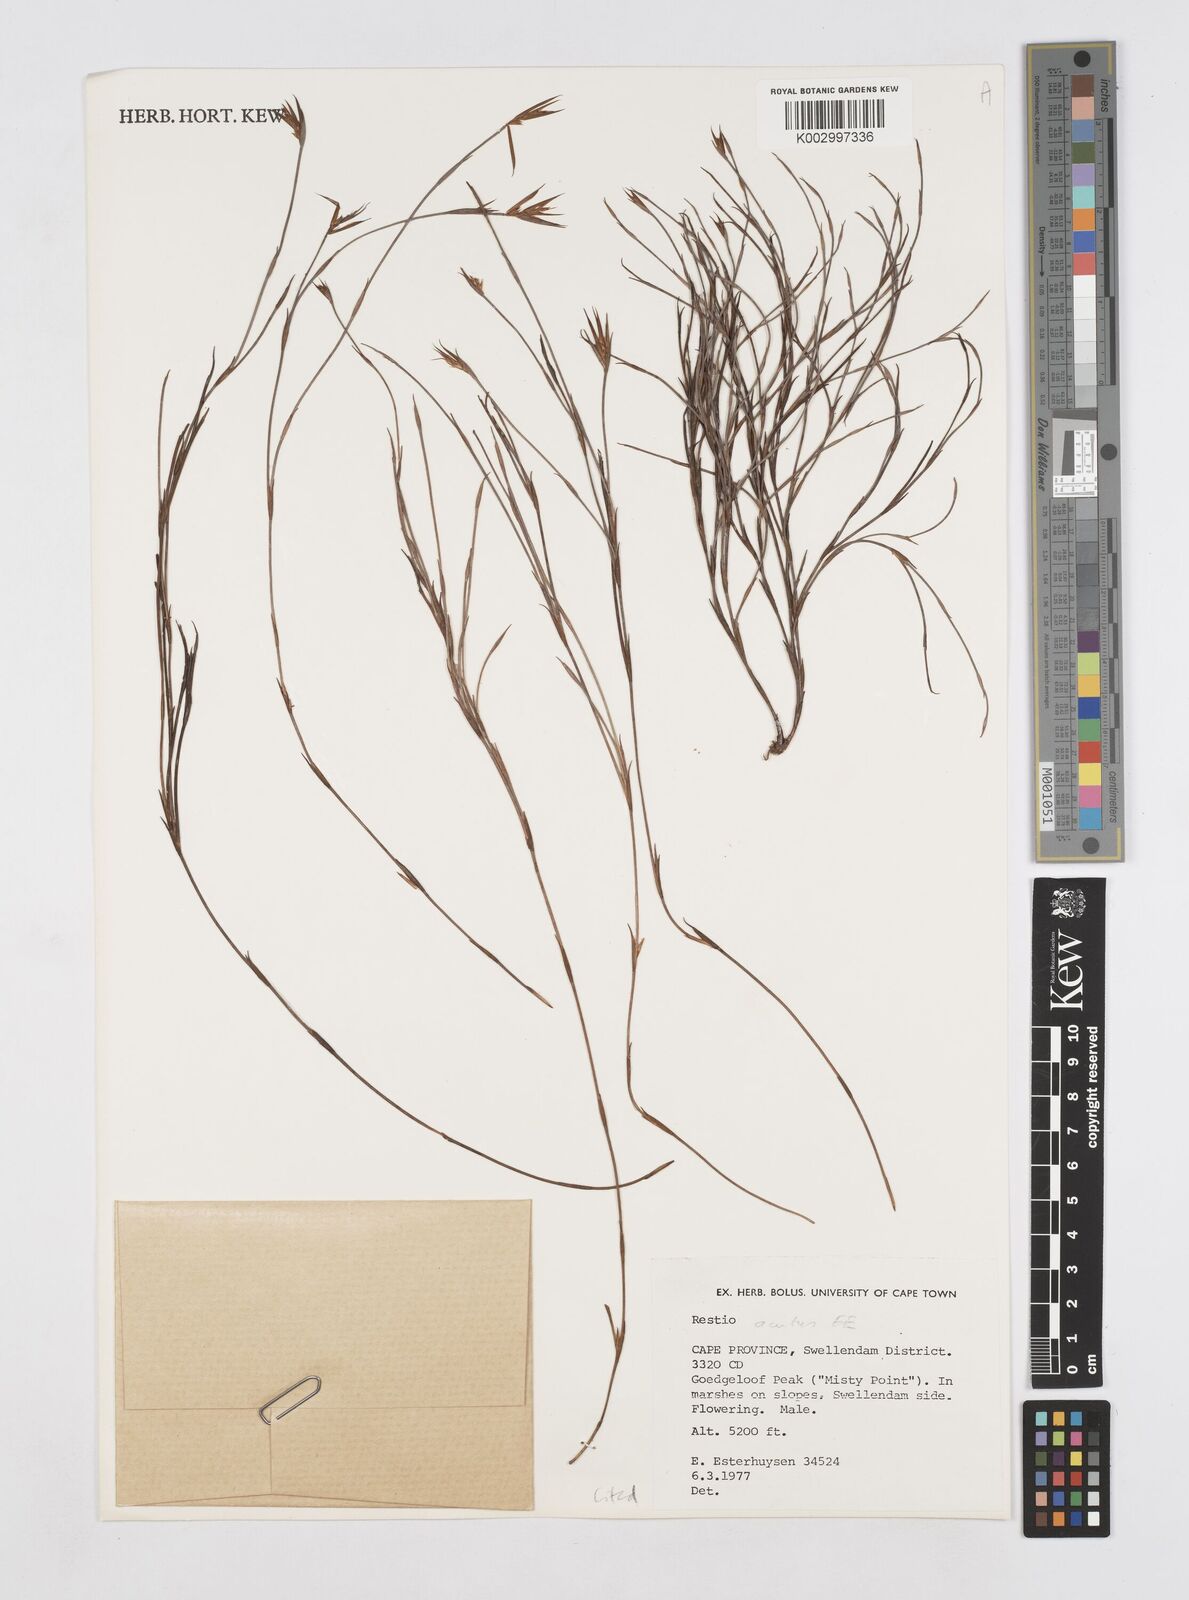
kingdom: Plantae
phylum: Tracheophyta
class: Liliopsida
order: Poales
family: Restionaceae
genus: Platycaulos
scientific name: Platycaulos acutus
